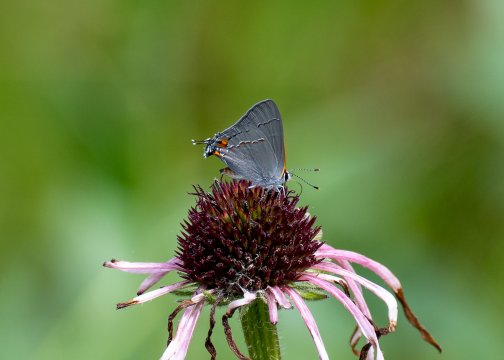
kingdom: Animalia
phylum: Arthropoda
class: Insecta
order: Lepidoptera
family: Lycaenidae
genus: Strymon
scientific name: Strymon melinus
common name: Gray Hairstreak
